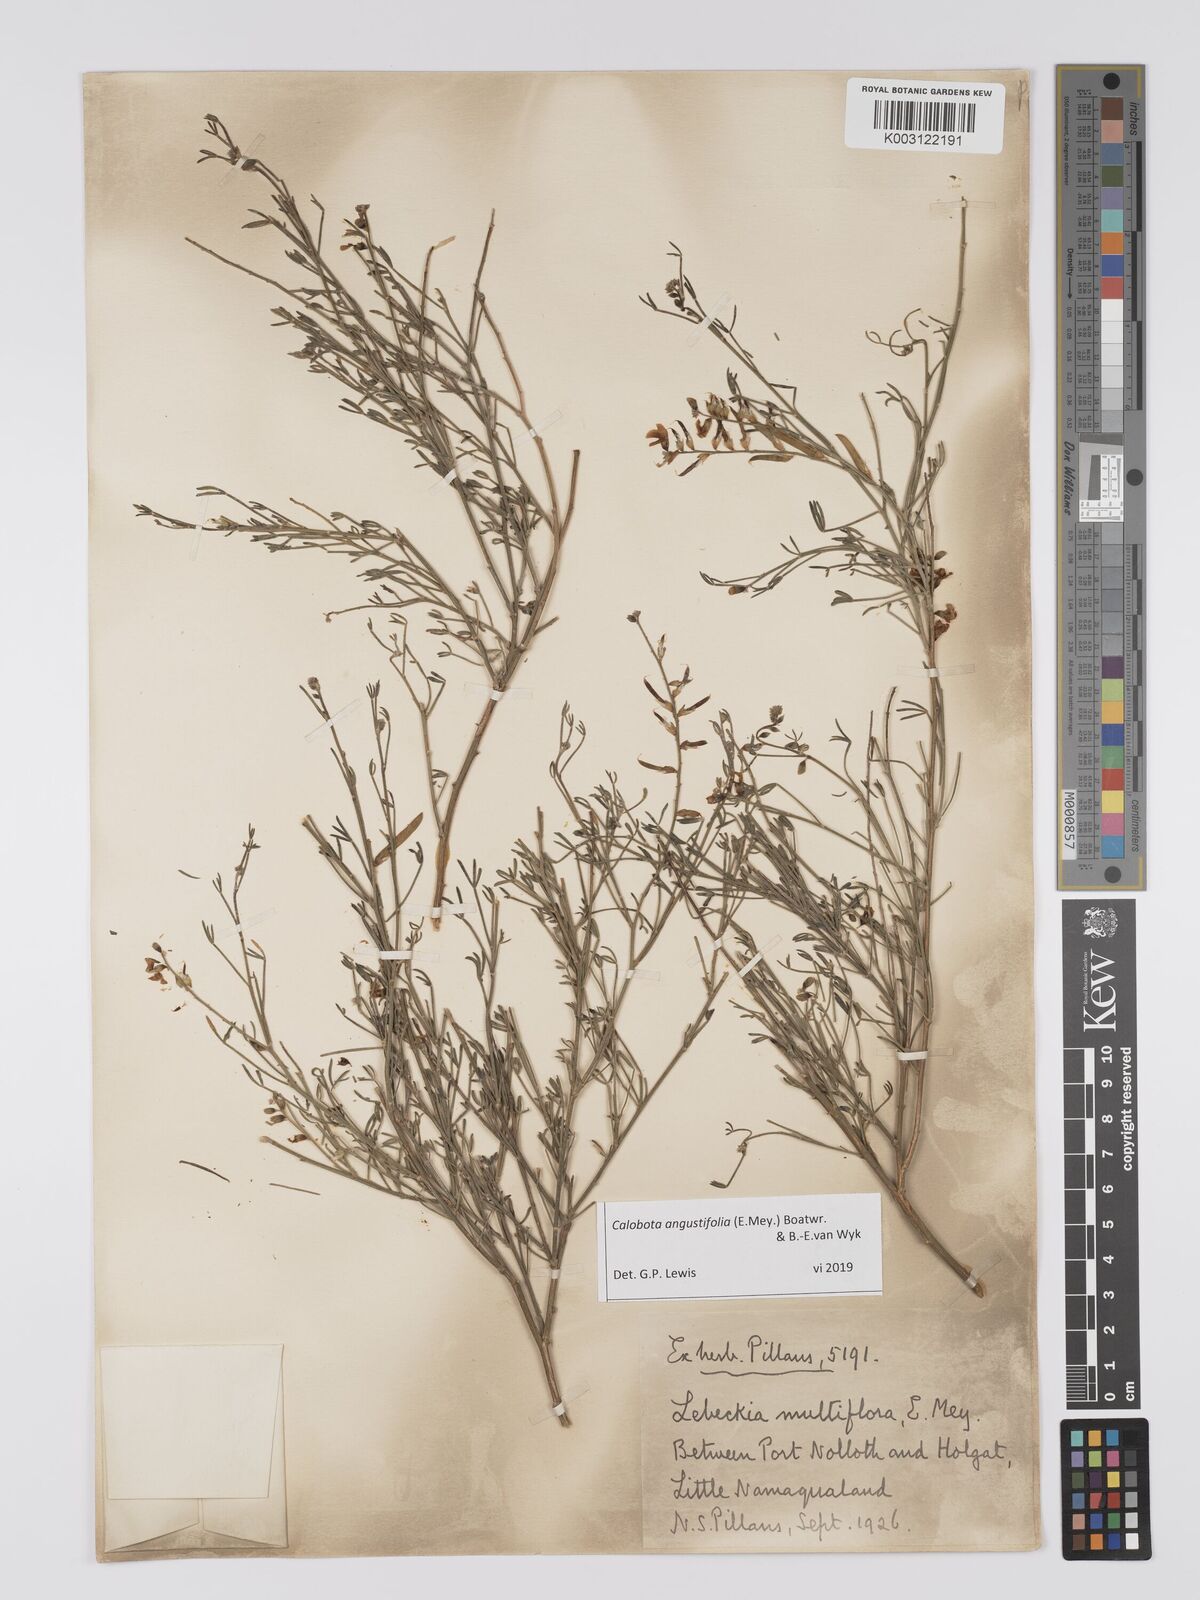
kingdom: Plantae
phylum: Tracheophyta
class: Magnoliopsida
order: Fabales
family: Fabaceae
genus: Calobota
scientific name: Calobota angustifolia
